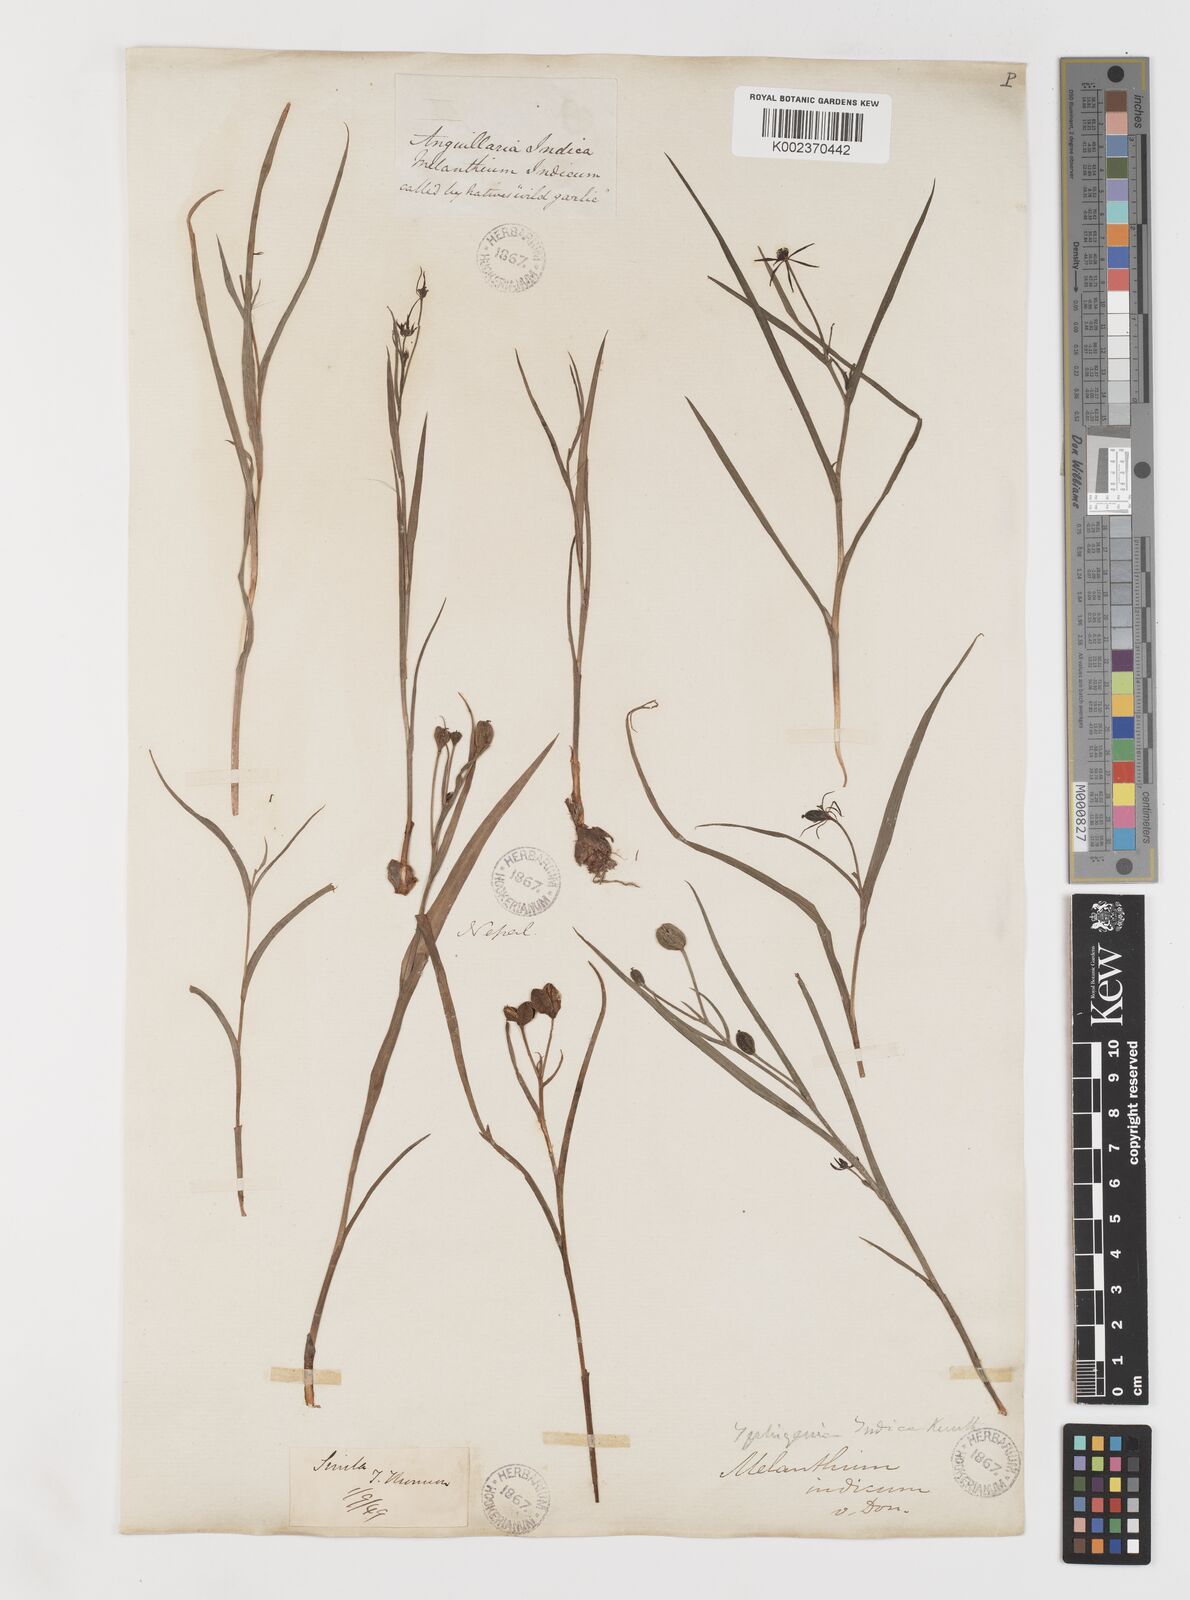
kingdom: Plantae
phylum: Tracheophyta
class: Liliopsida
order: Liliales
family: Colchicaceae
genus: Iphigenia
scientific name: Iphigenia indica
